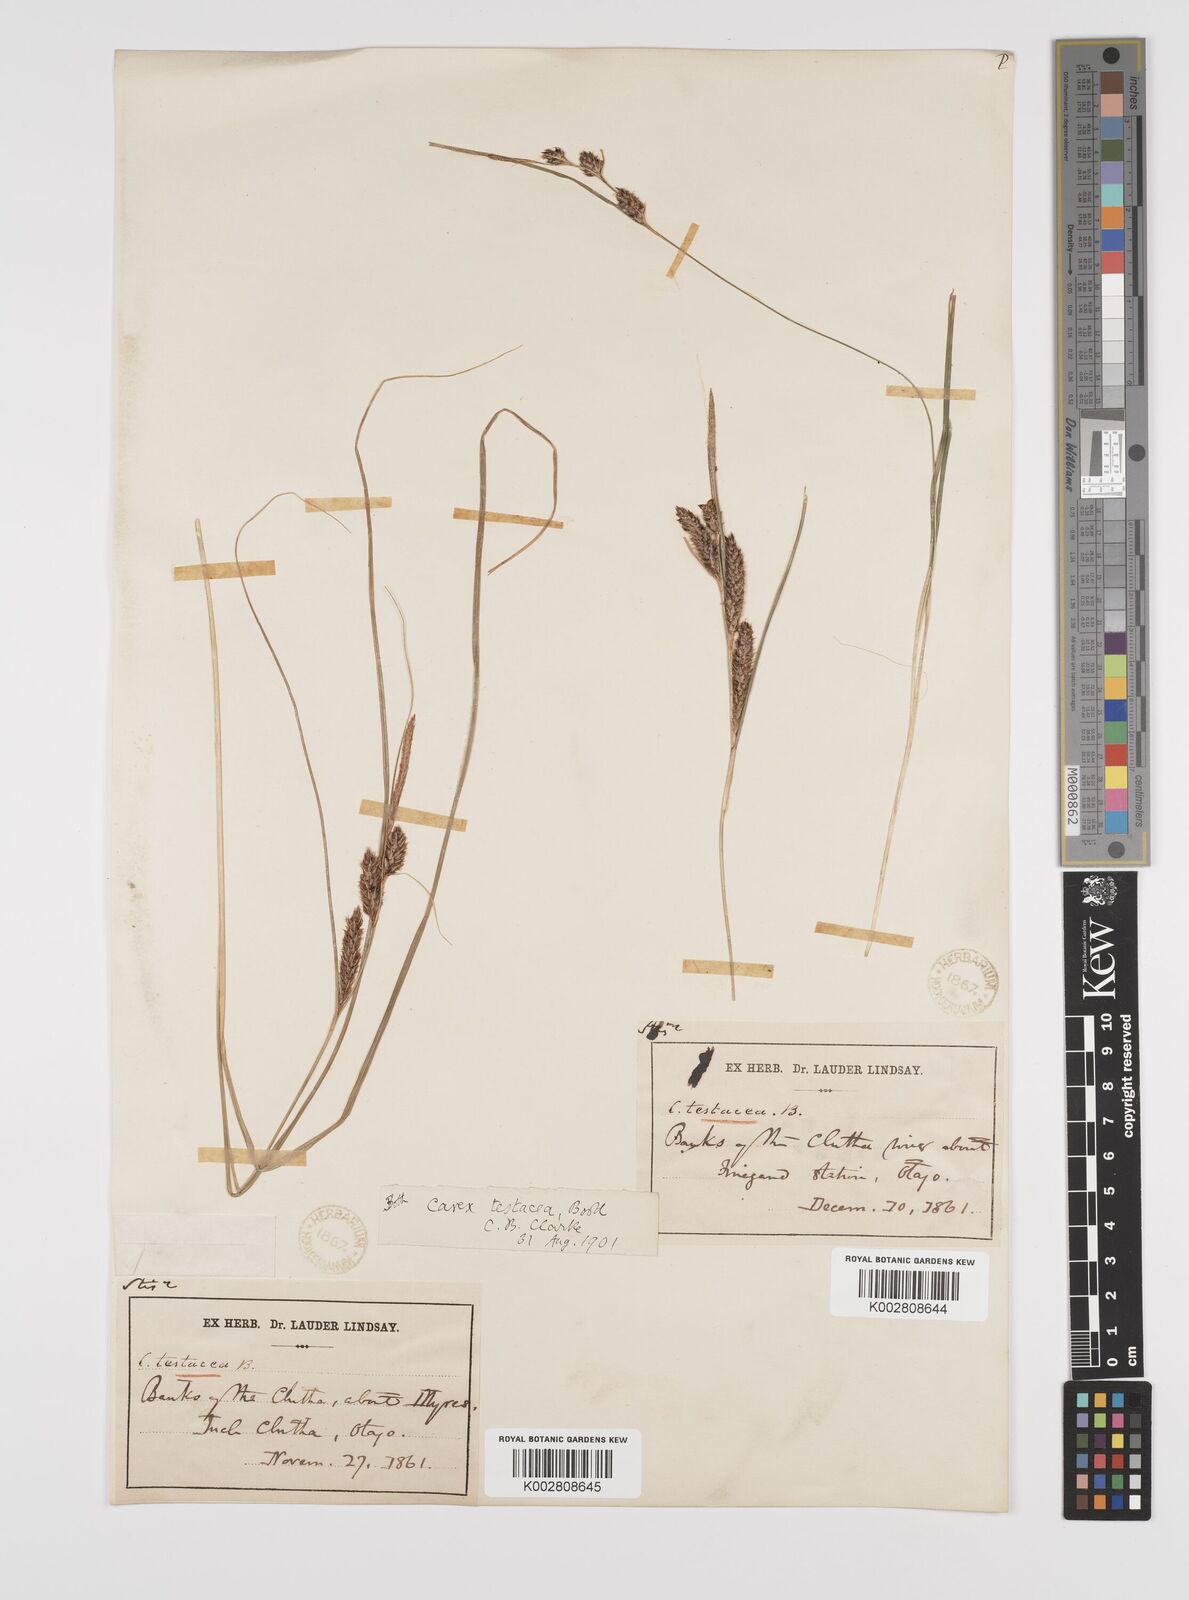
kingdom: Plantae
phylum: Tracheophyta
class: Liliopsida
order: Poales
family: Cyperaceae
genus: Carex
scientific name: Carex testacea
